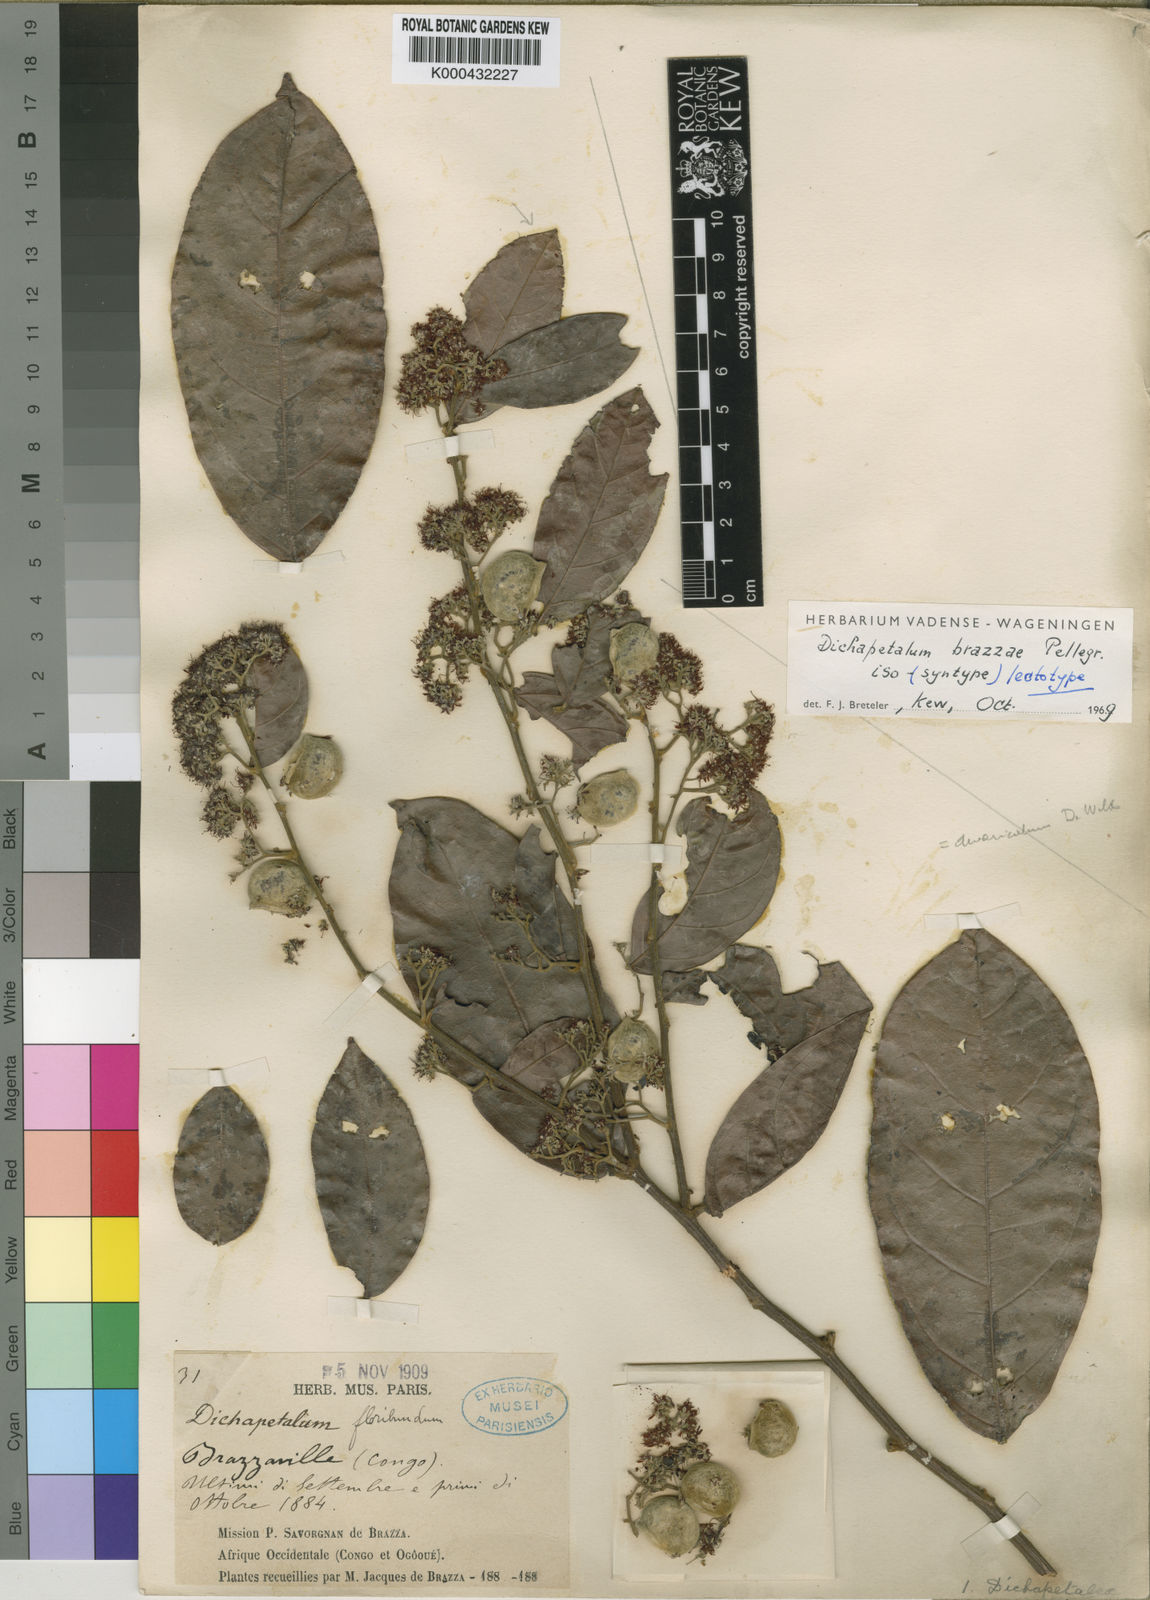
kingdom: Plantae
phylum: Tracheophyta
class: Magnoliopsida
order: Malpighiales
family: Dichapetalaceae
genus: Dichapetalum
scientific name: Dichapetalum librevillense
